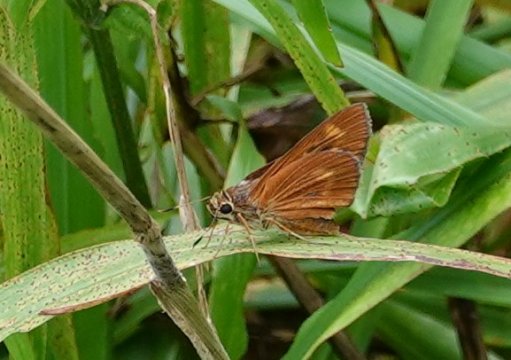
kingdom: Animalia
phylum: Arthropoda
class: Insecta
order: Lepidoptera
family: Hesperiidae
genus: Wallengrenia
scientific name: Wallengrenia otho
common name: Southern Broken-Dash
